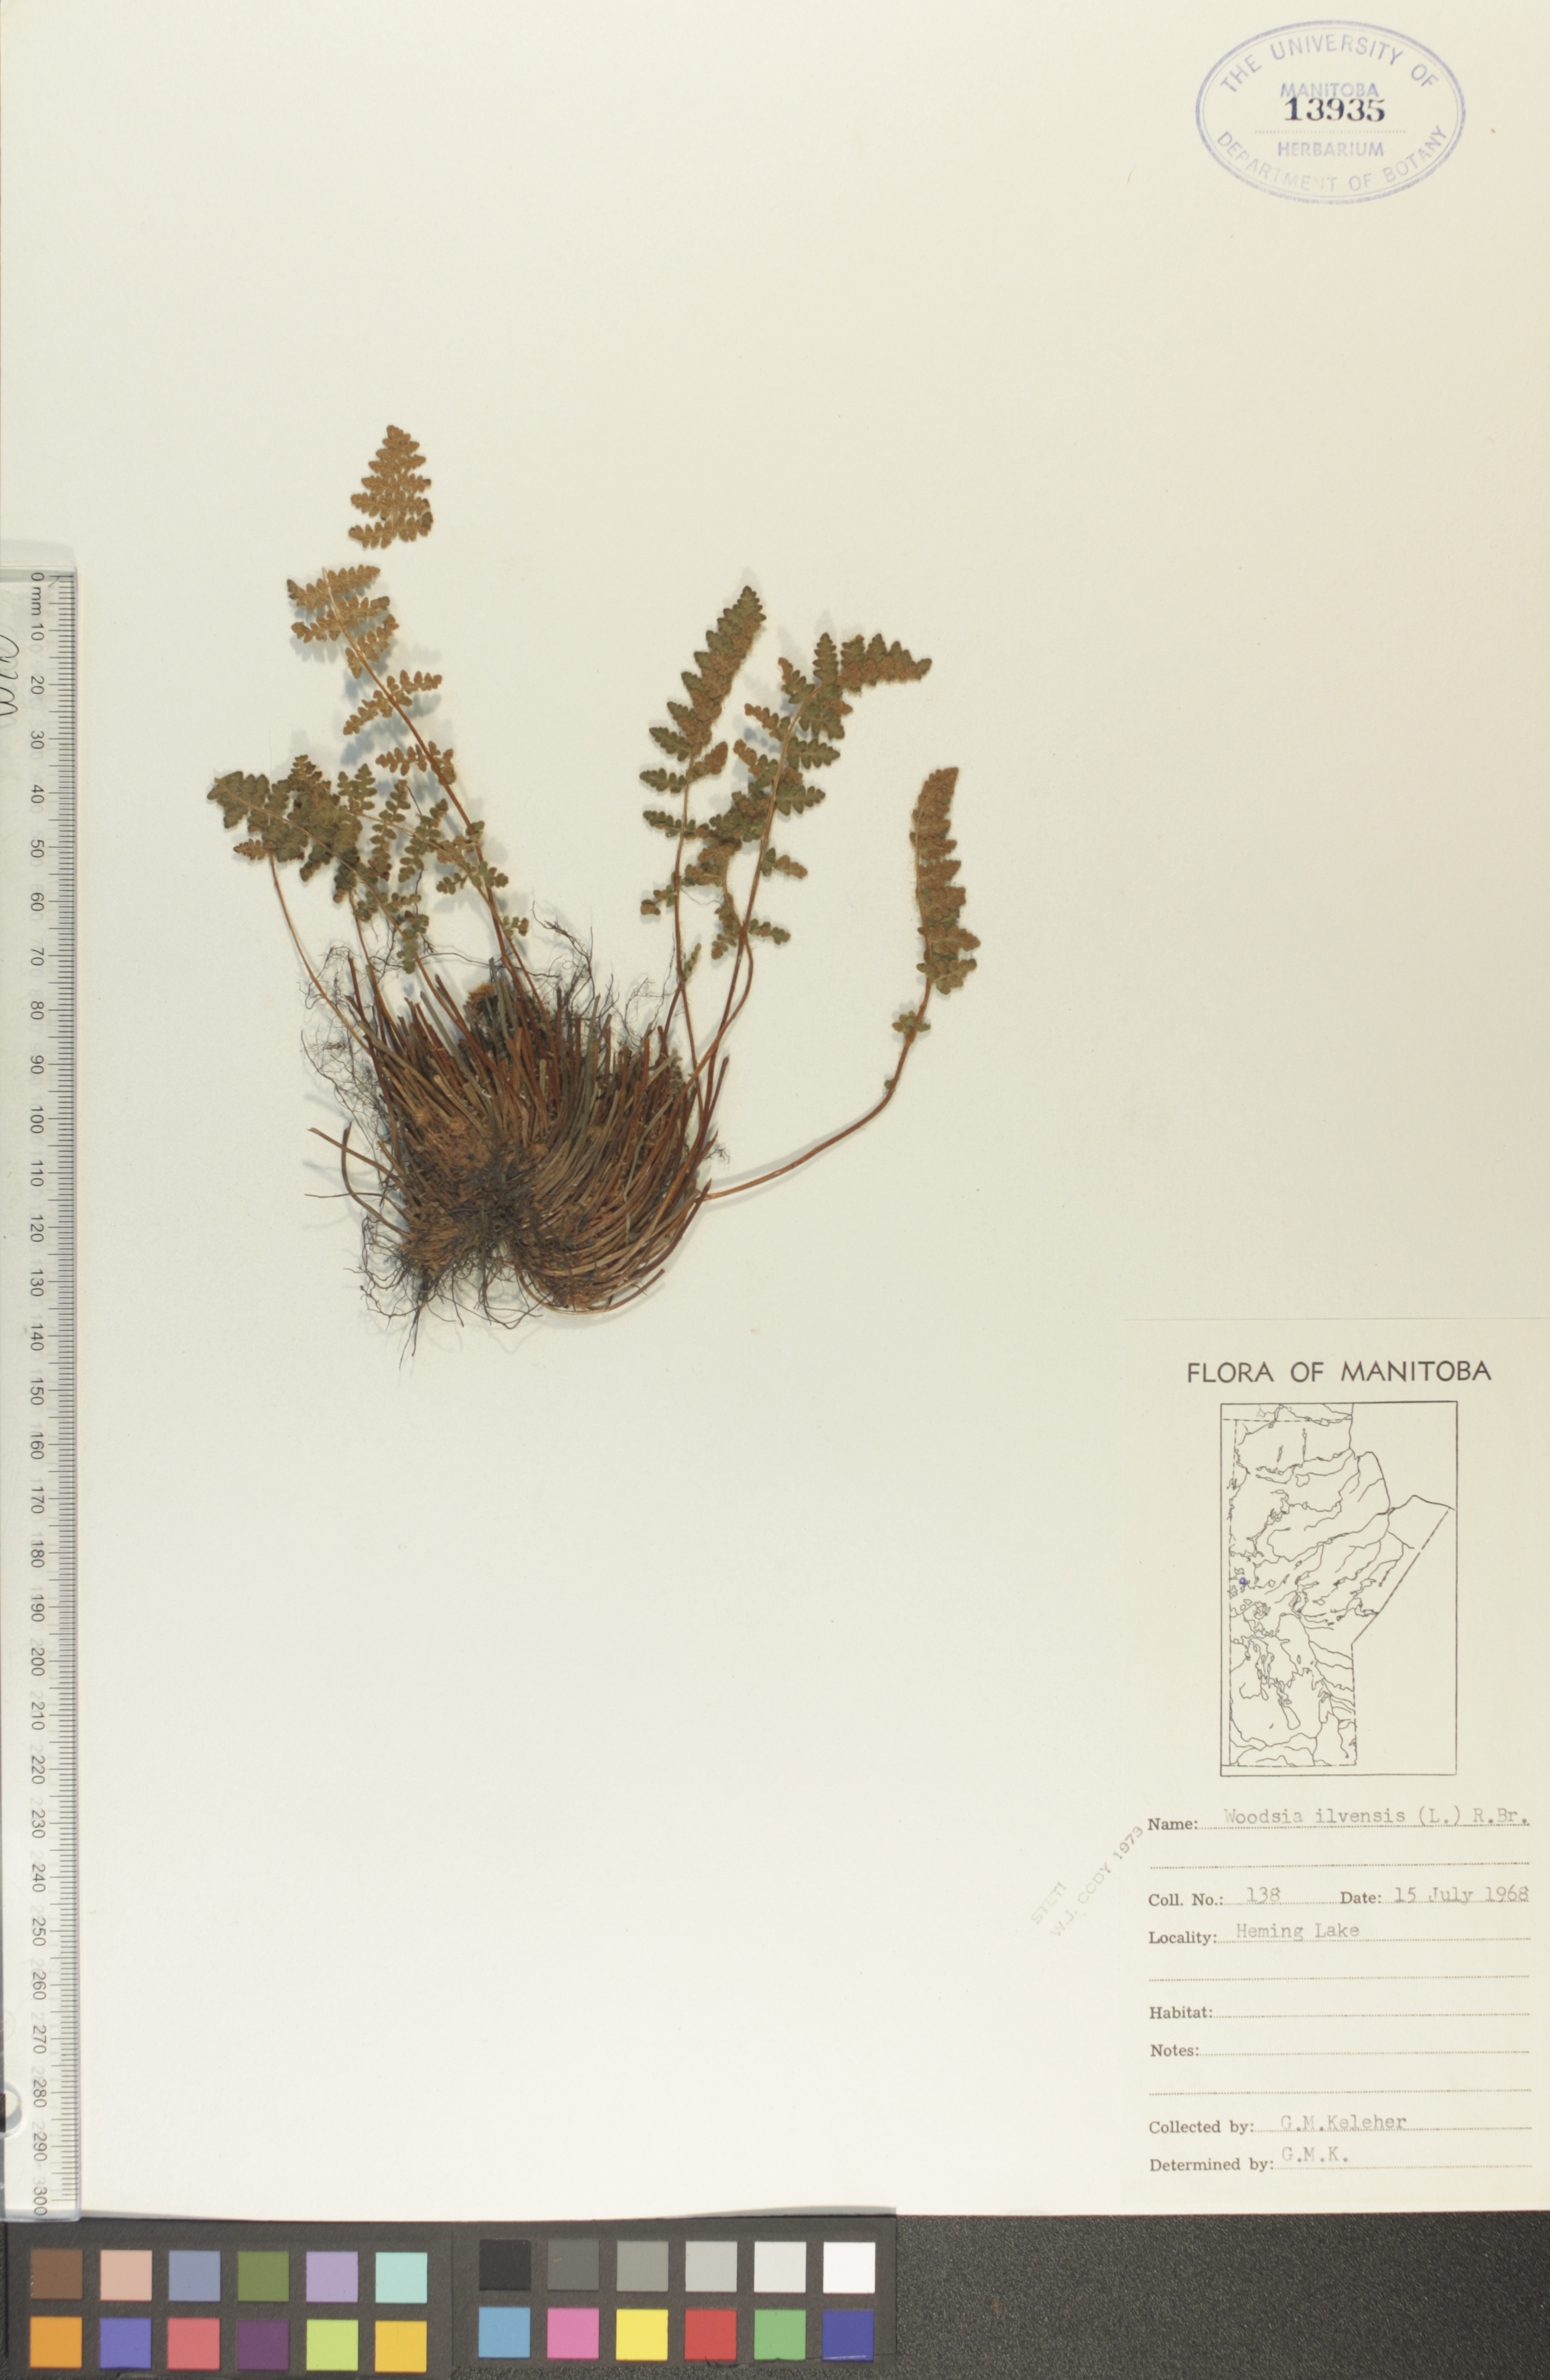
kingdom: Plantae
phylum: Tracheophyta
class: Polypodiopsida
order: Polypodiales
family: Woodsiaceae
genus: Woodsia
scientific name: Woodsia ilvensis
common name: Fragrant woodsia
